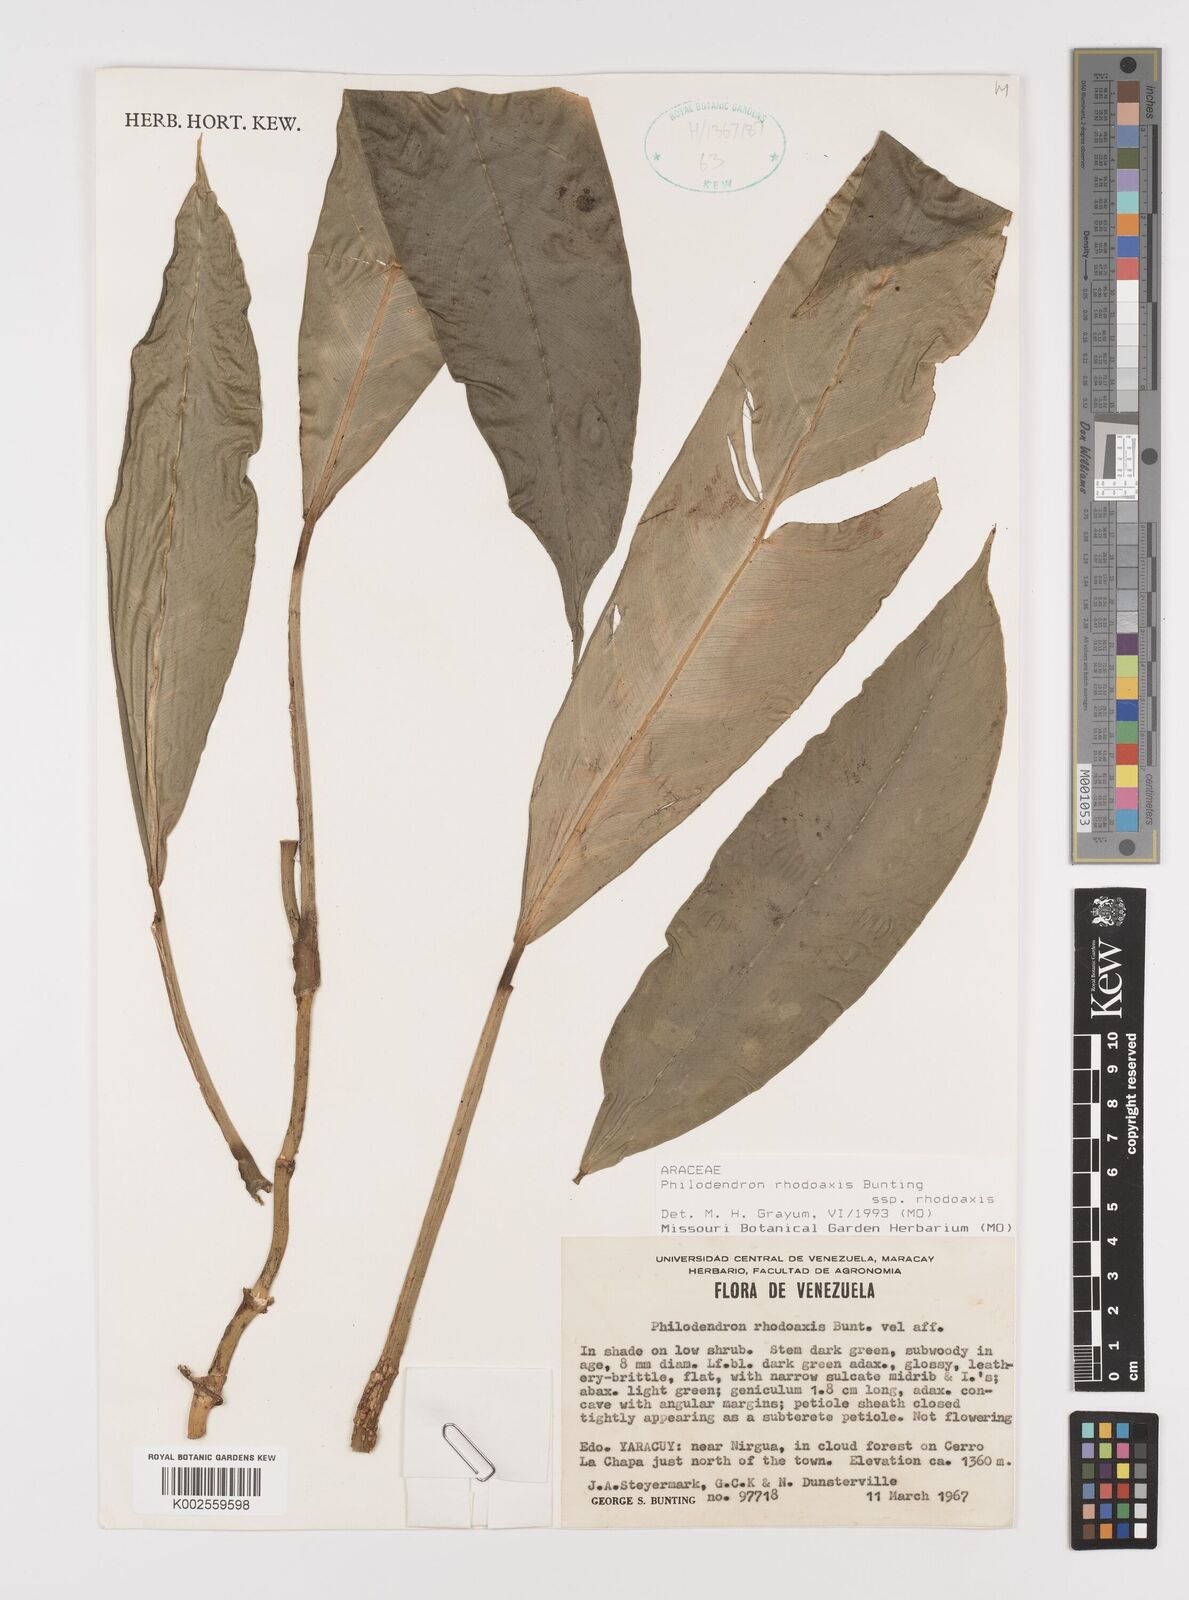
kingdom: Plantae
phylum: Tracheophyta
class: Liliopsida
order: Alismatales
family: Araceae
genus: Philodendron
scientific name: Philodendron rhodoaxis
